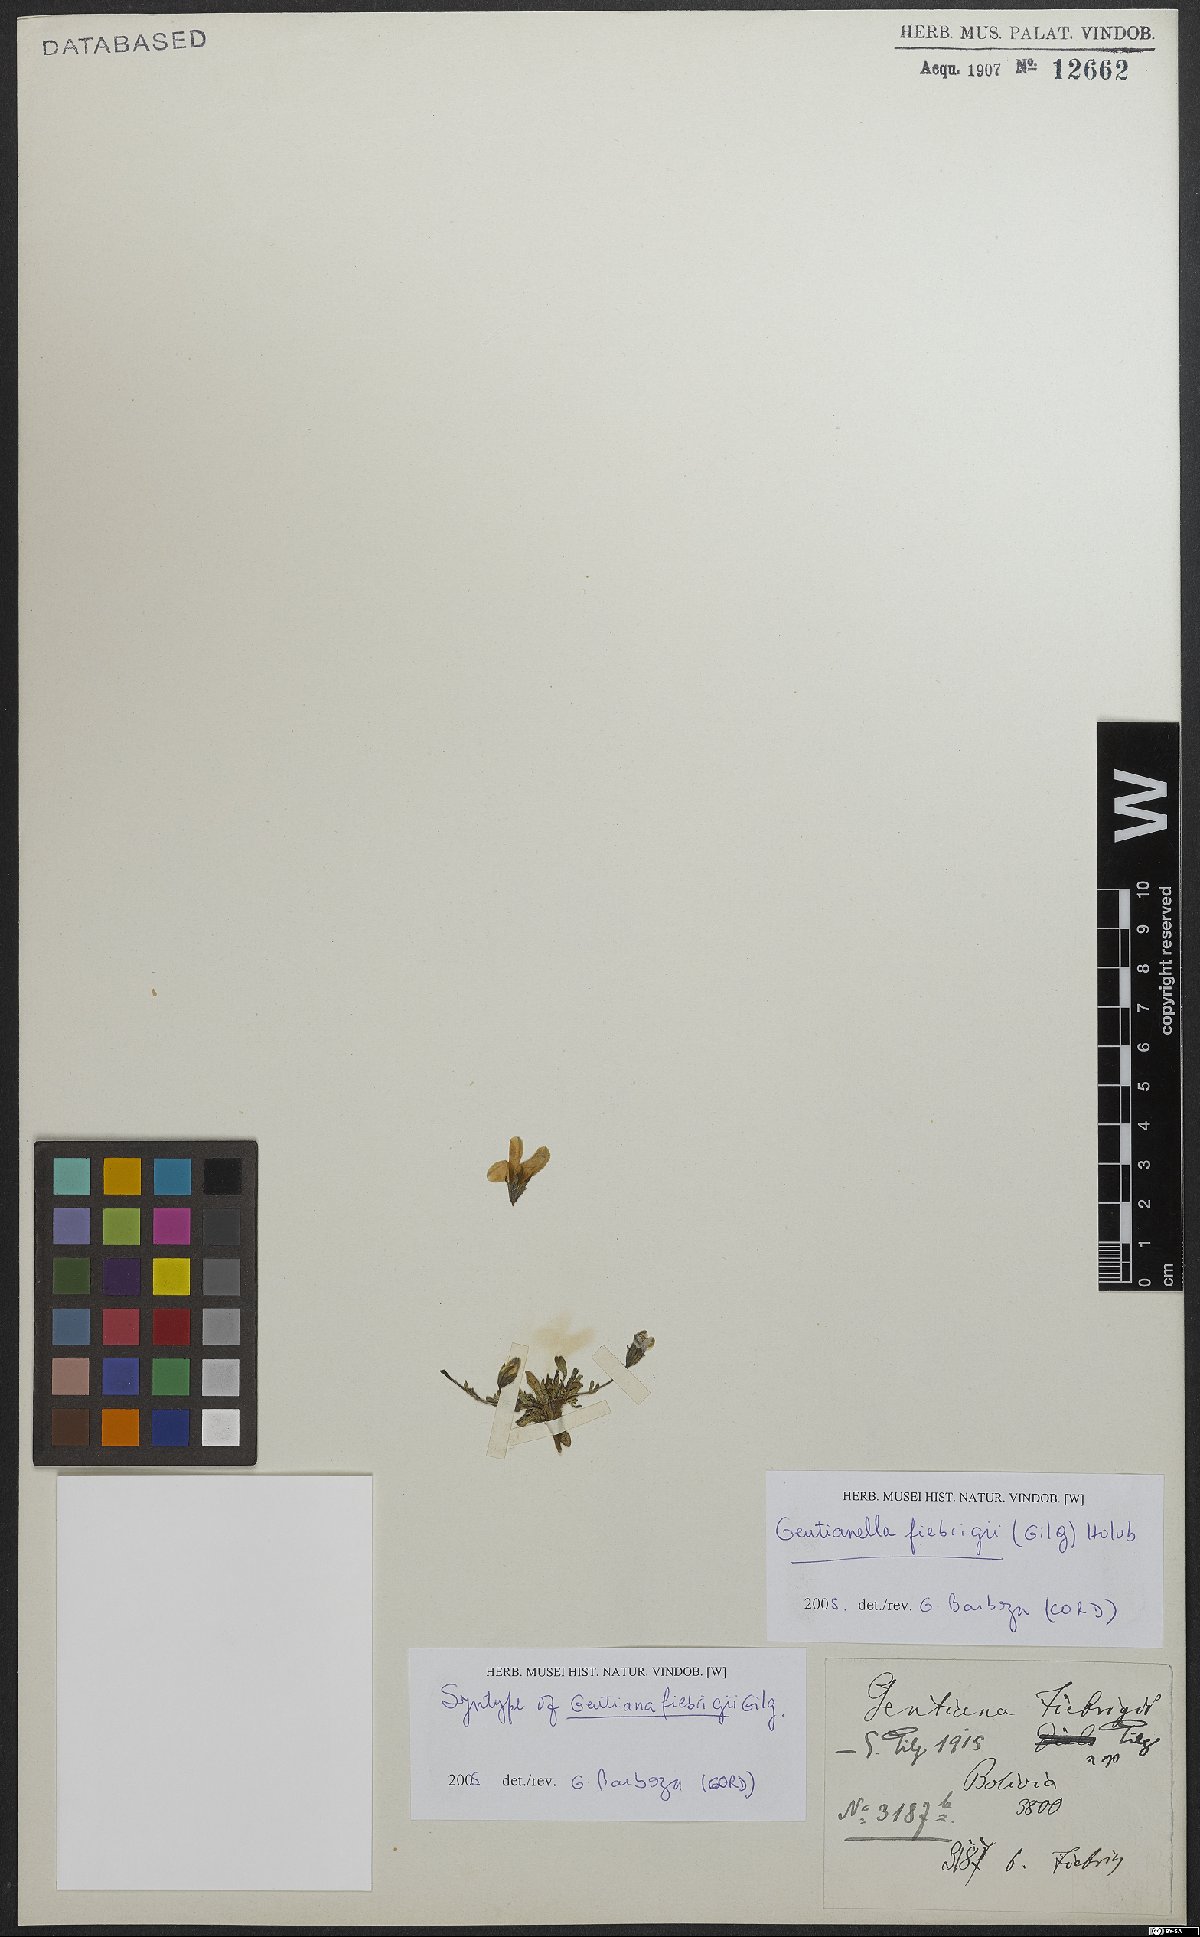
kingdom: Plantae
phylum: Tracheophyta
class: Magnoliopsida
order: Gentianales
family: Gentianaceae
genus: Gentianella
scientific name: Gentianella fiebrigii
